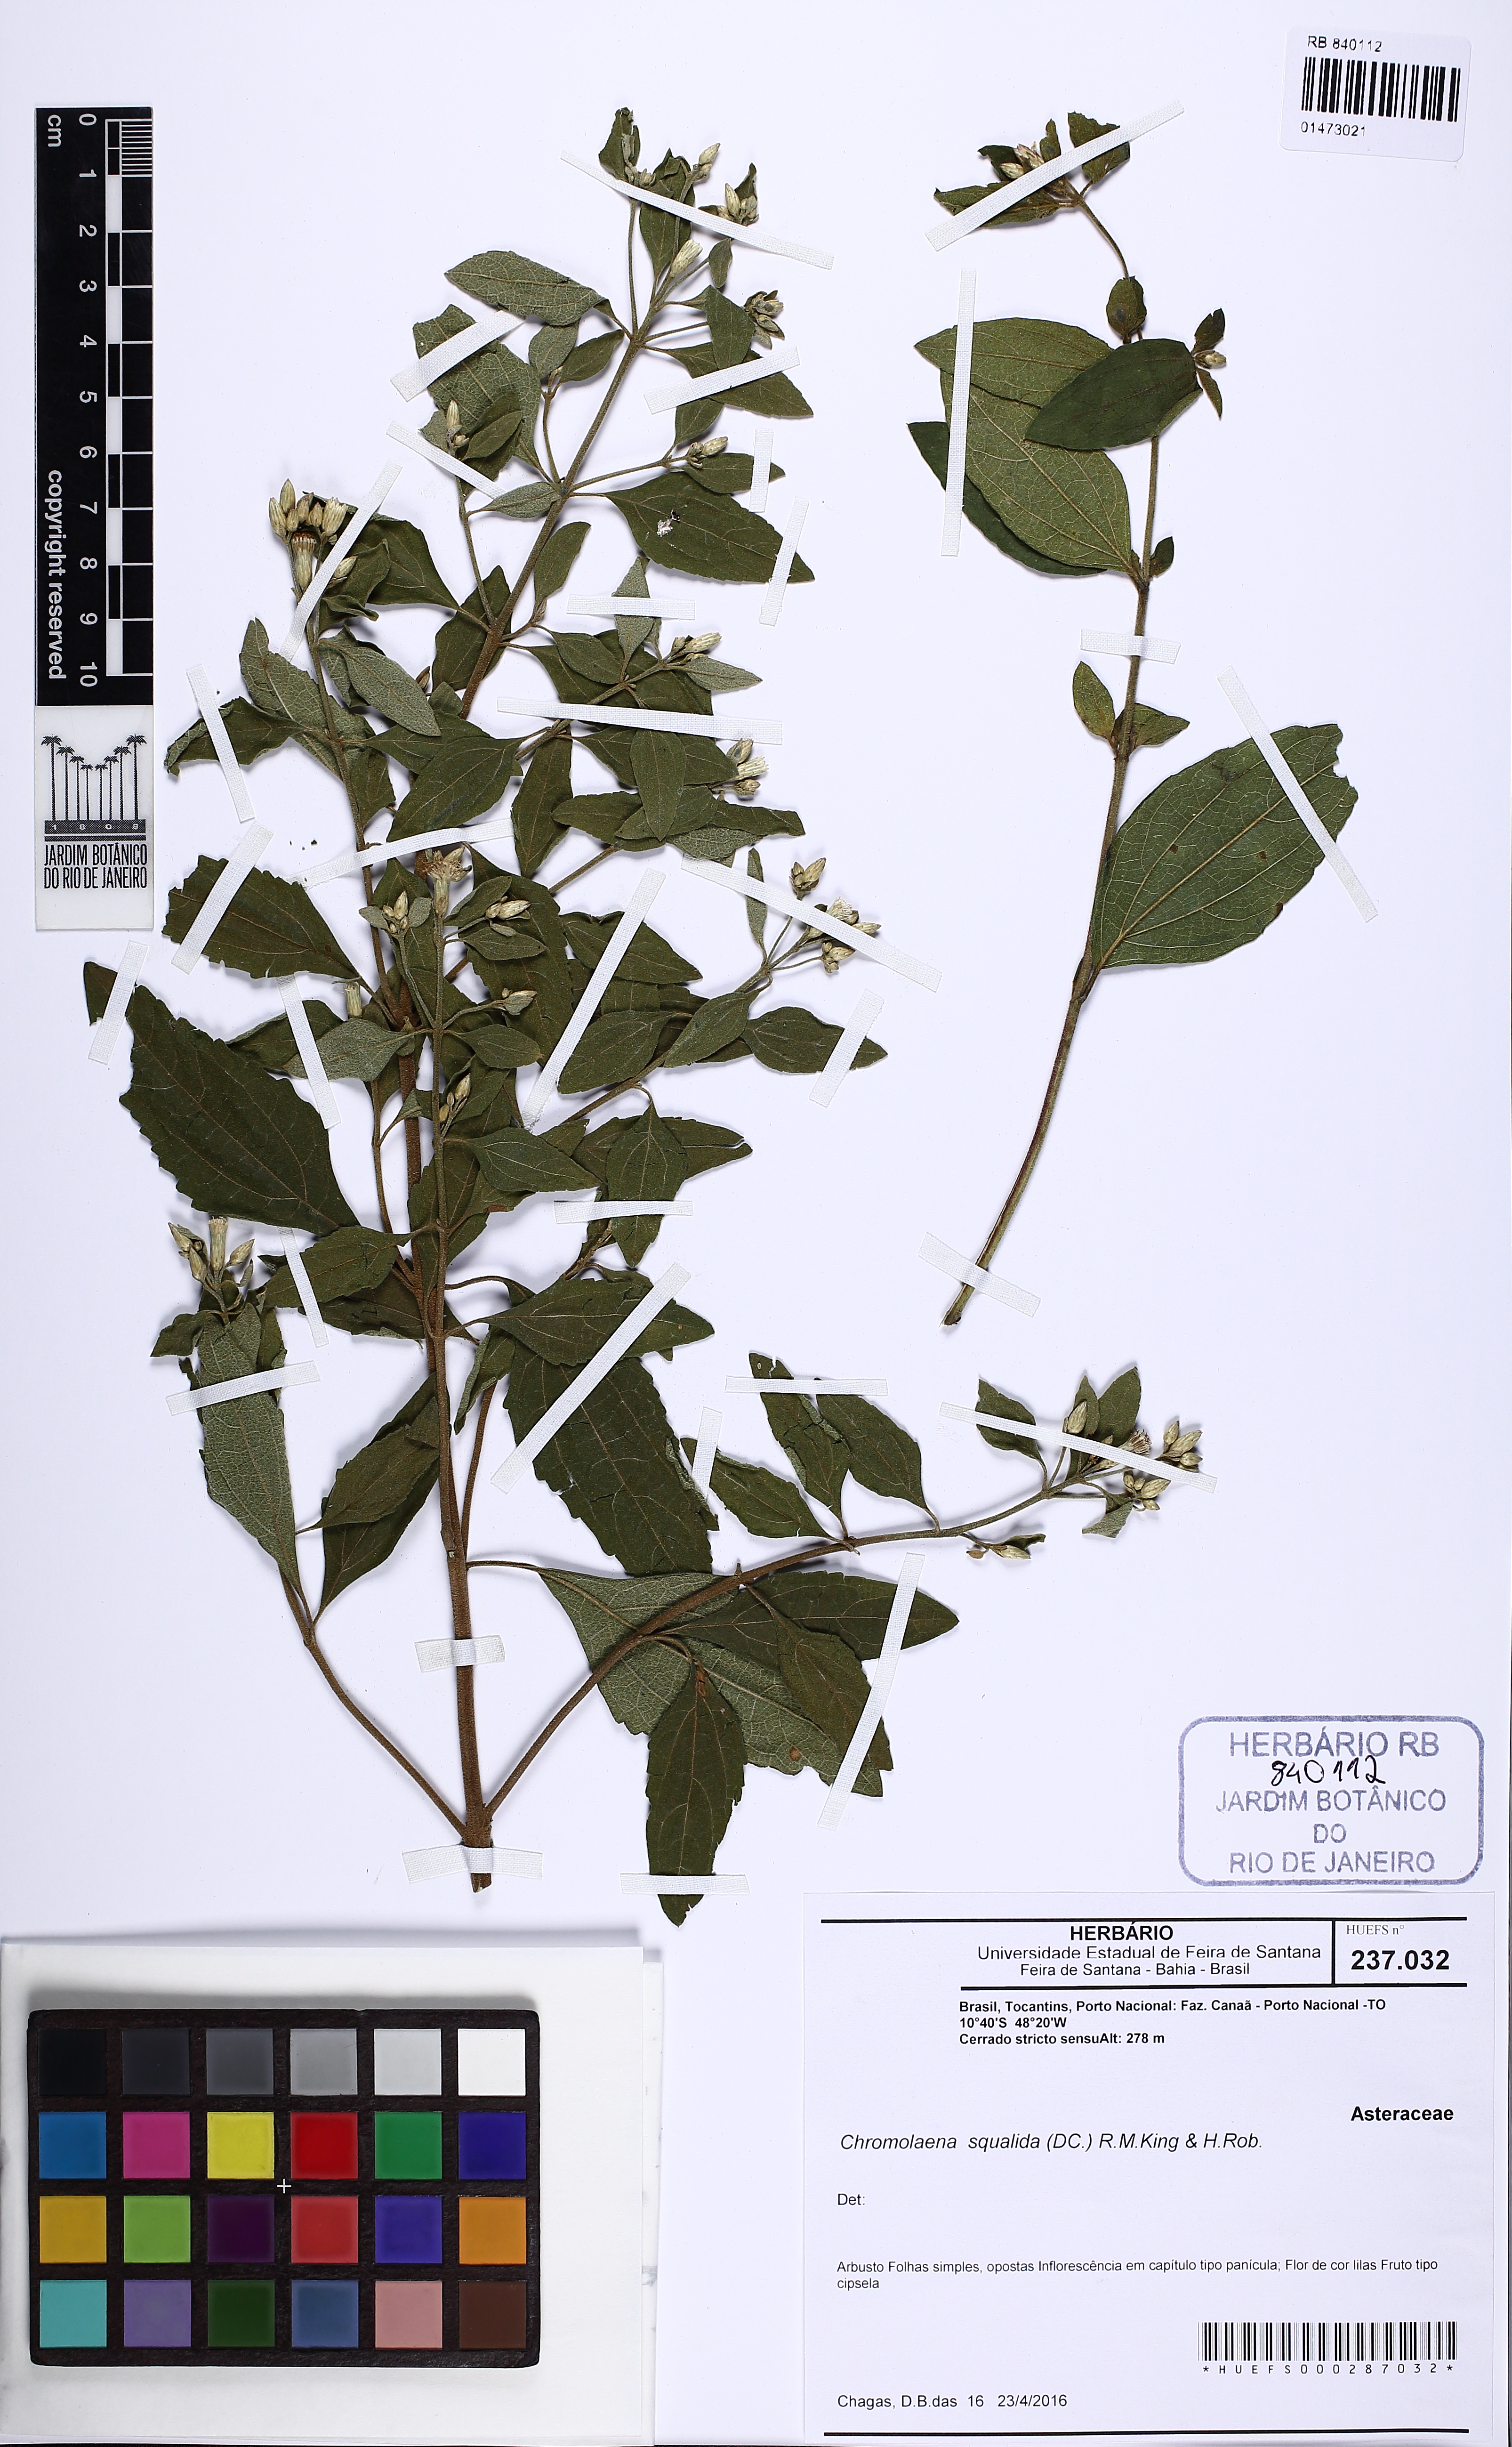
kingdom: Plantae
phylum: Tracheophyta
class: Magnoliopsida
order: Asterales
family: Asteraceae
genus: Chromolaena
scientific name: Chromolaena squalida
